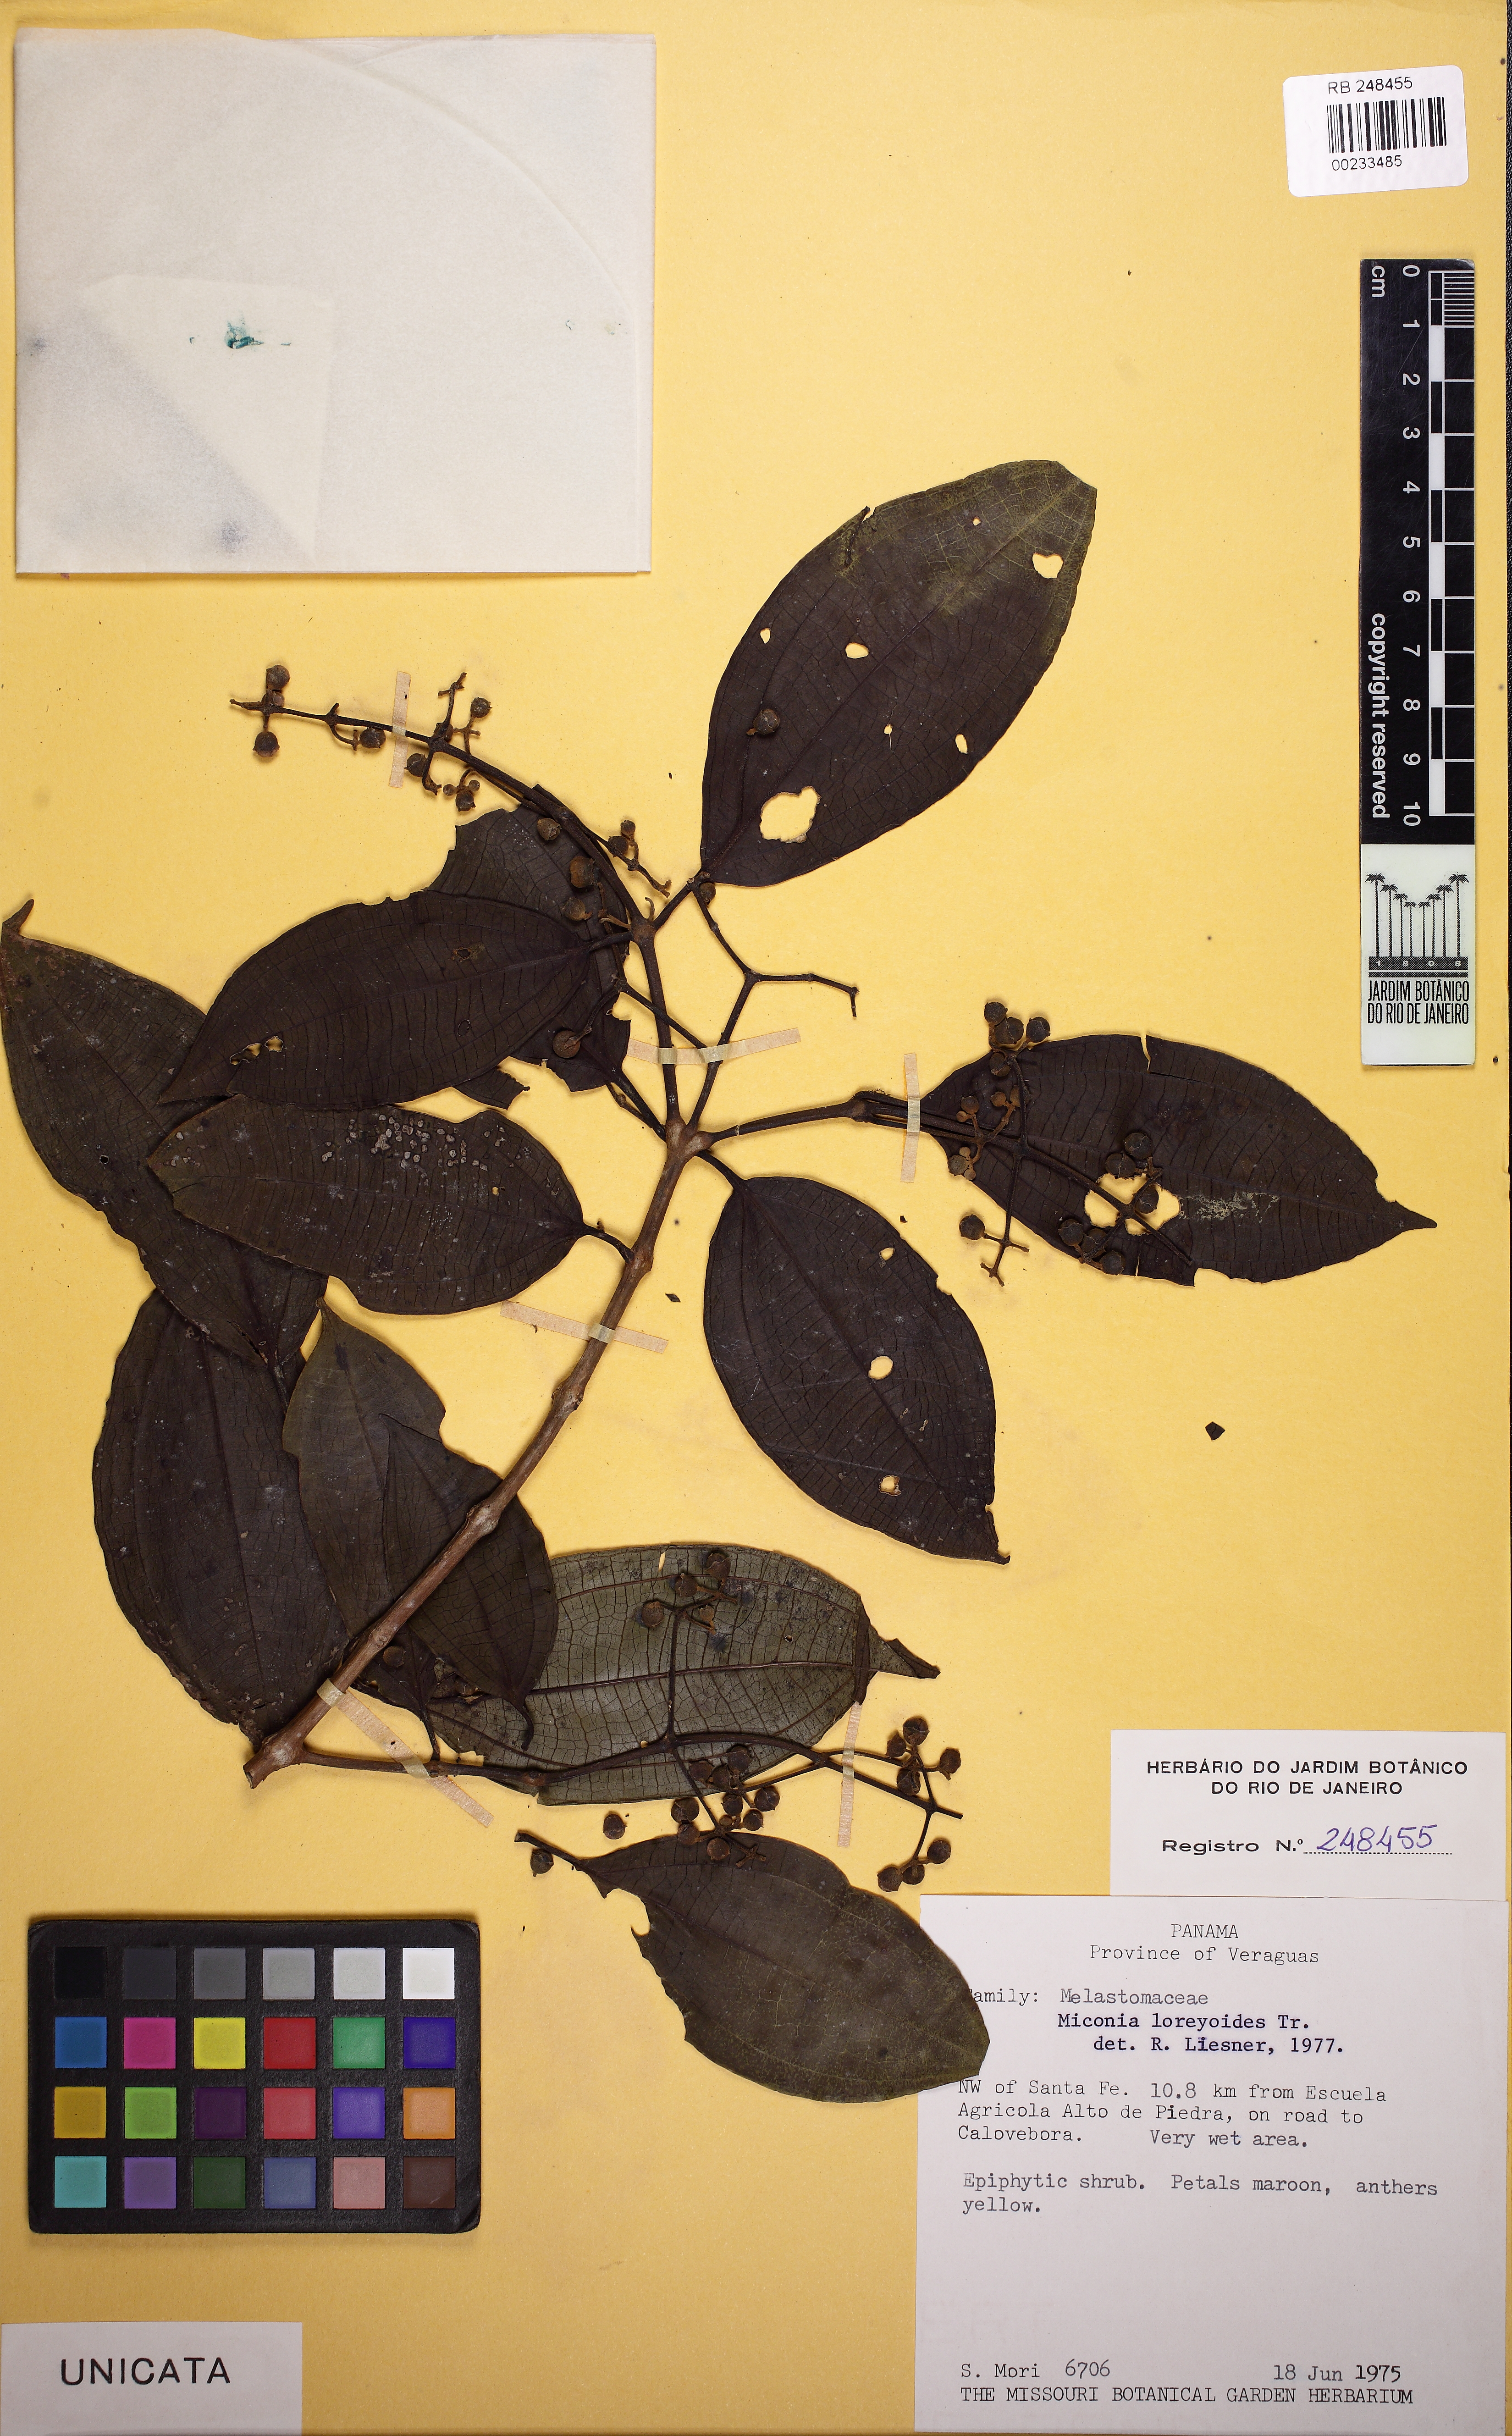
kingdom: Plantae
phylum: Tracheophyta
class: Magnoliopsida
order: Myrtales
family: Melastomataceae
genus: Miconia
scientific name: Miconia loreyoides
